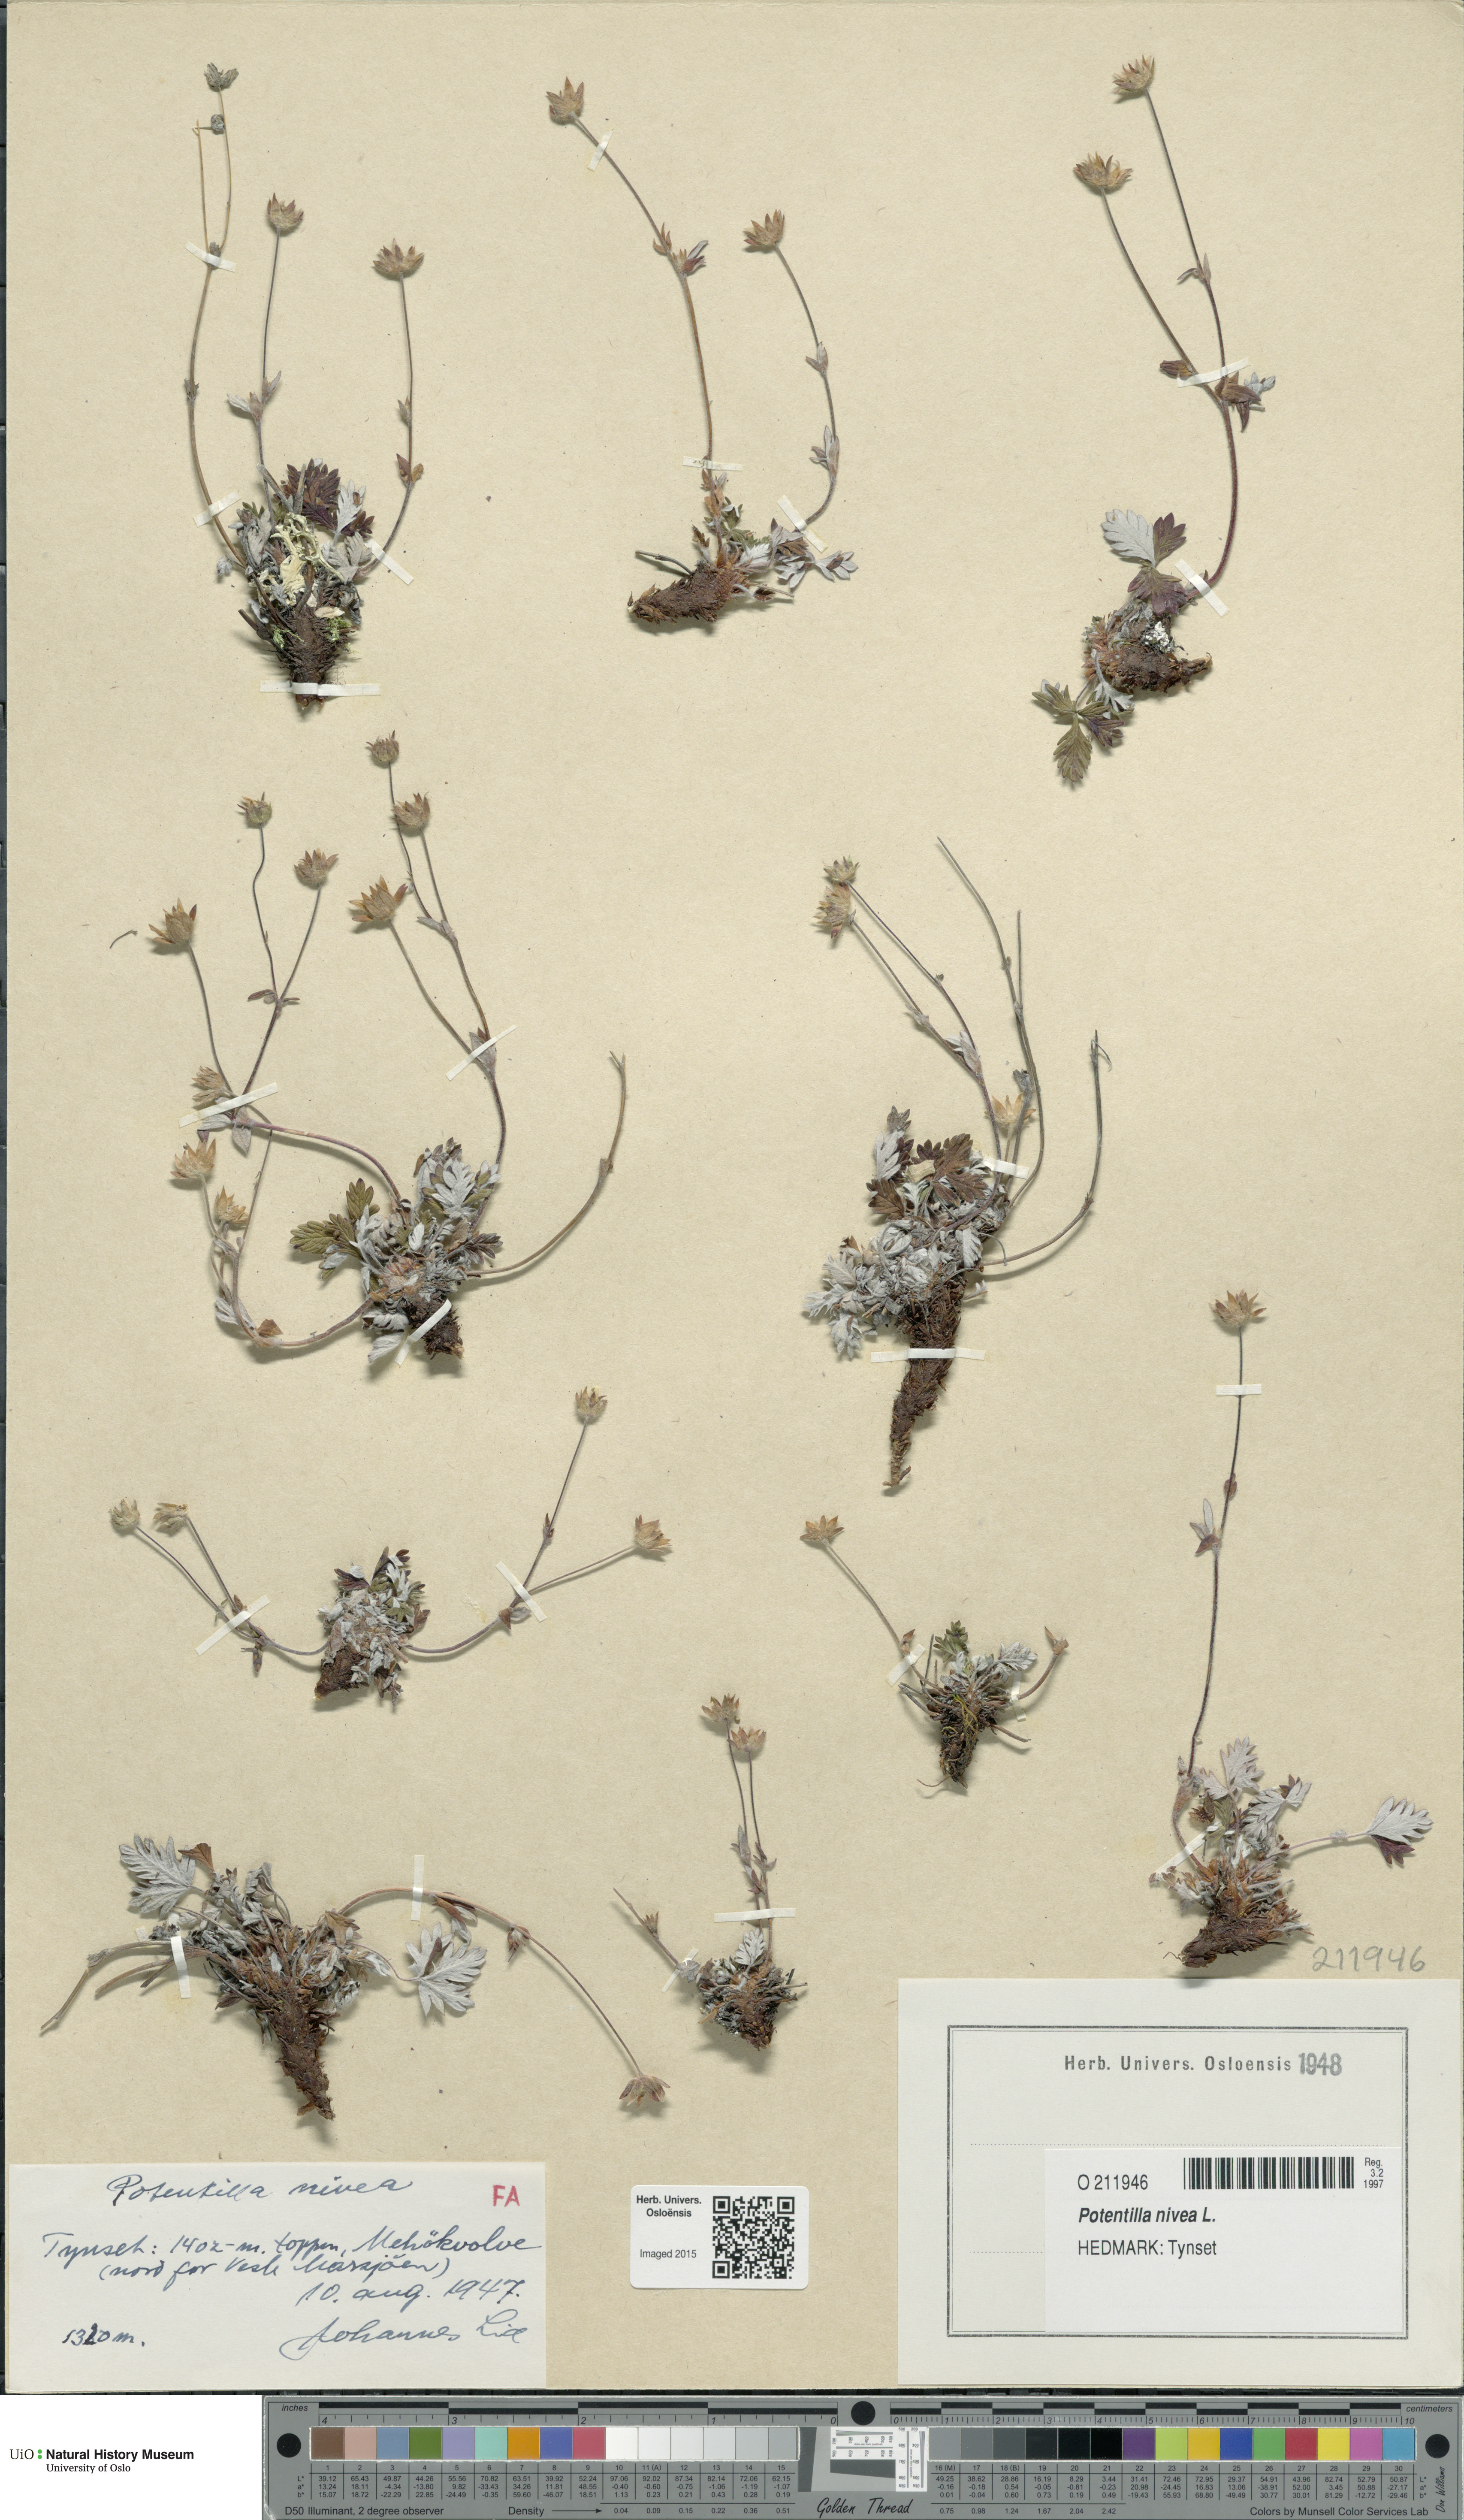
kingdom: Plantae
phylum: Tracheophyta
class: Magnoliopsida
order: Rosales
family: Rosaceae
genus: Potentilla
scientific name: Potentilla arenosa
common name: Bluff cinquefoil
